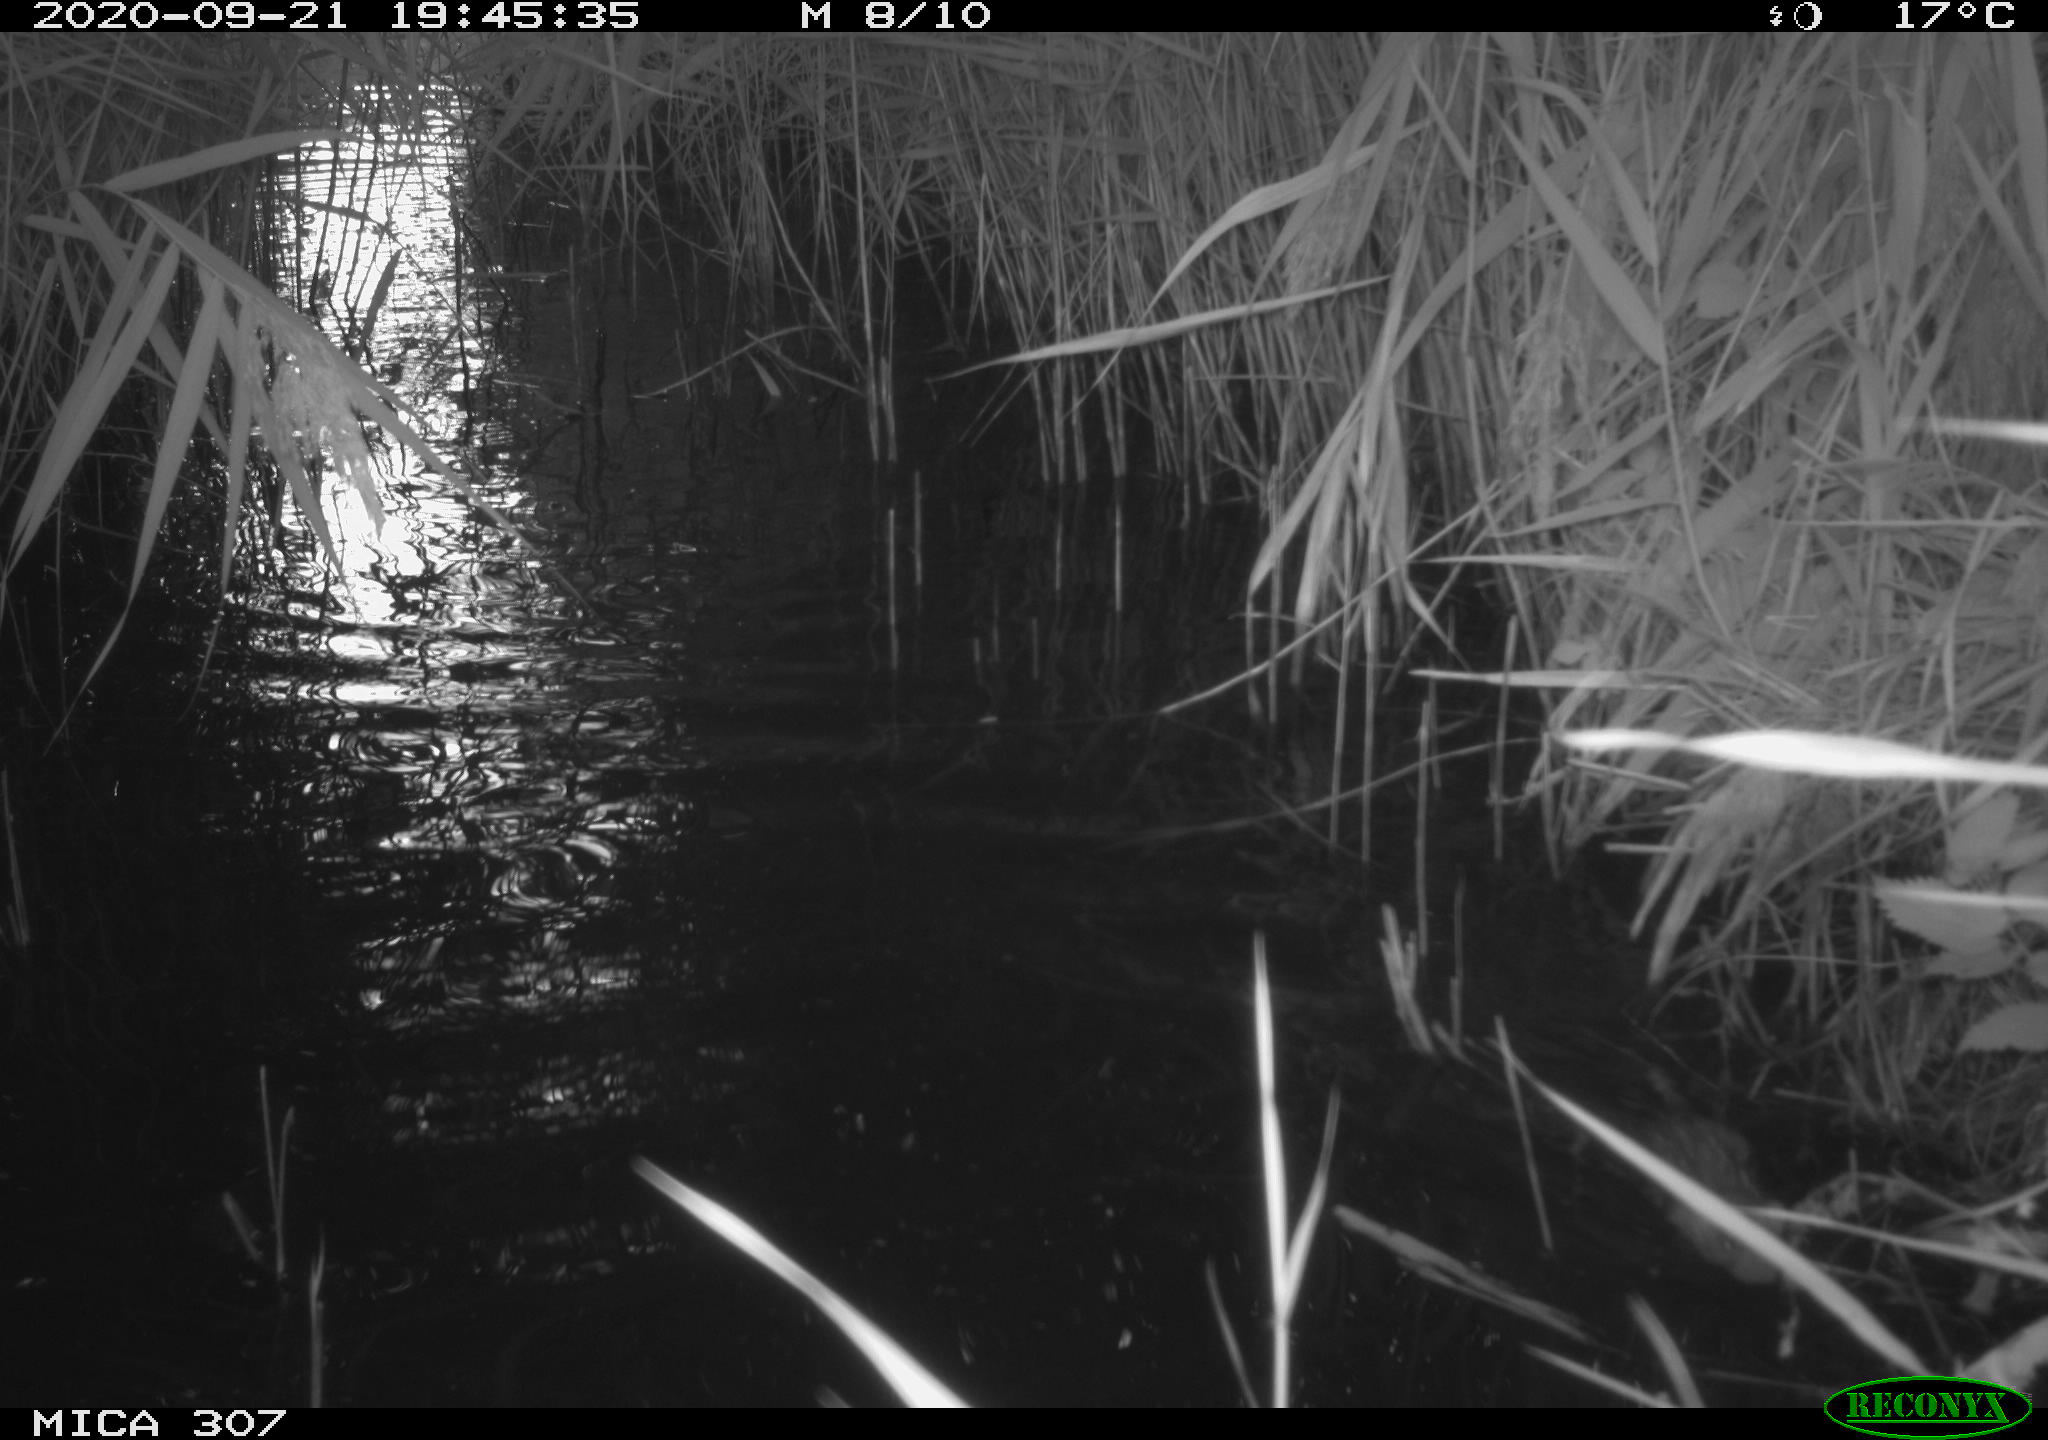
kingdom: Animalia
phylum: Chordata
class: Mammalia
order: Rodentia
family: Cricetidae
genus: Ondatra
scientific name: Ondatra zibethicus
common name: Muskrat
